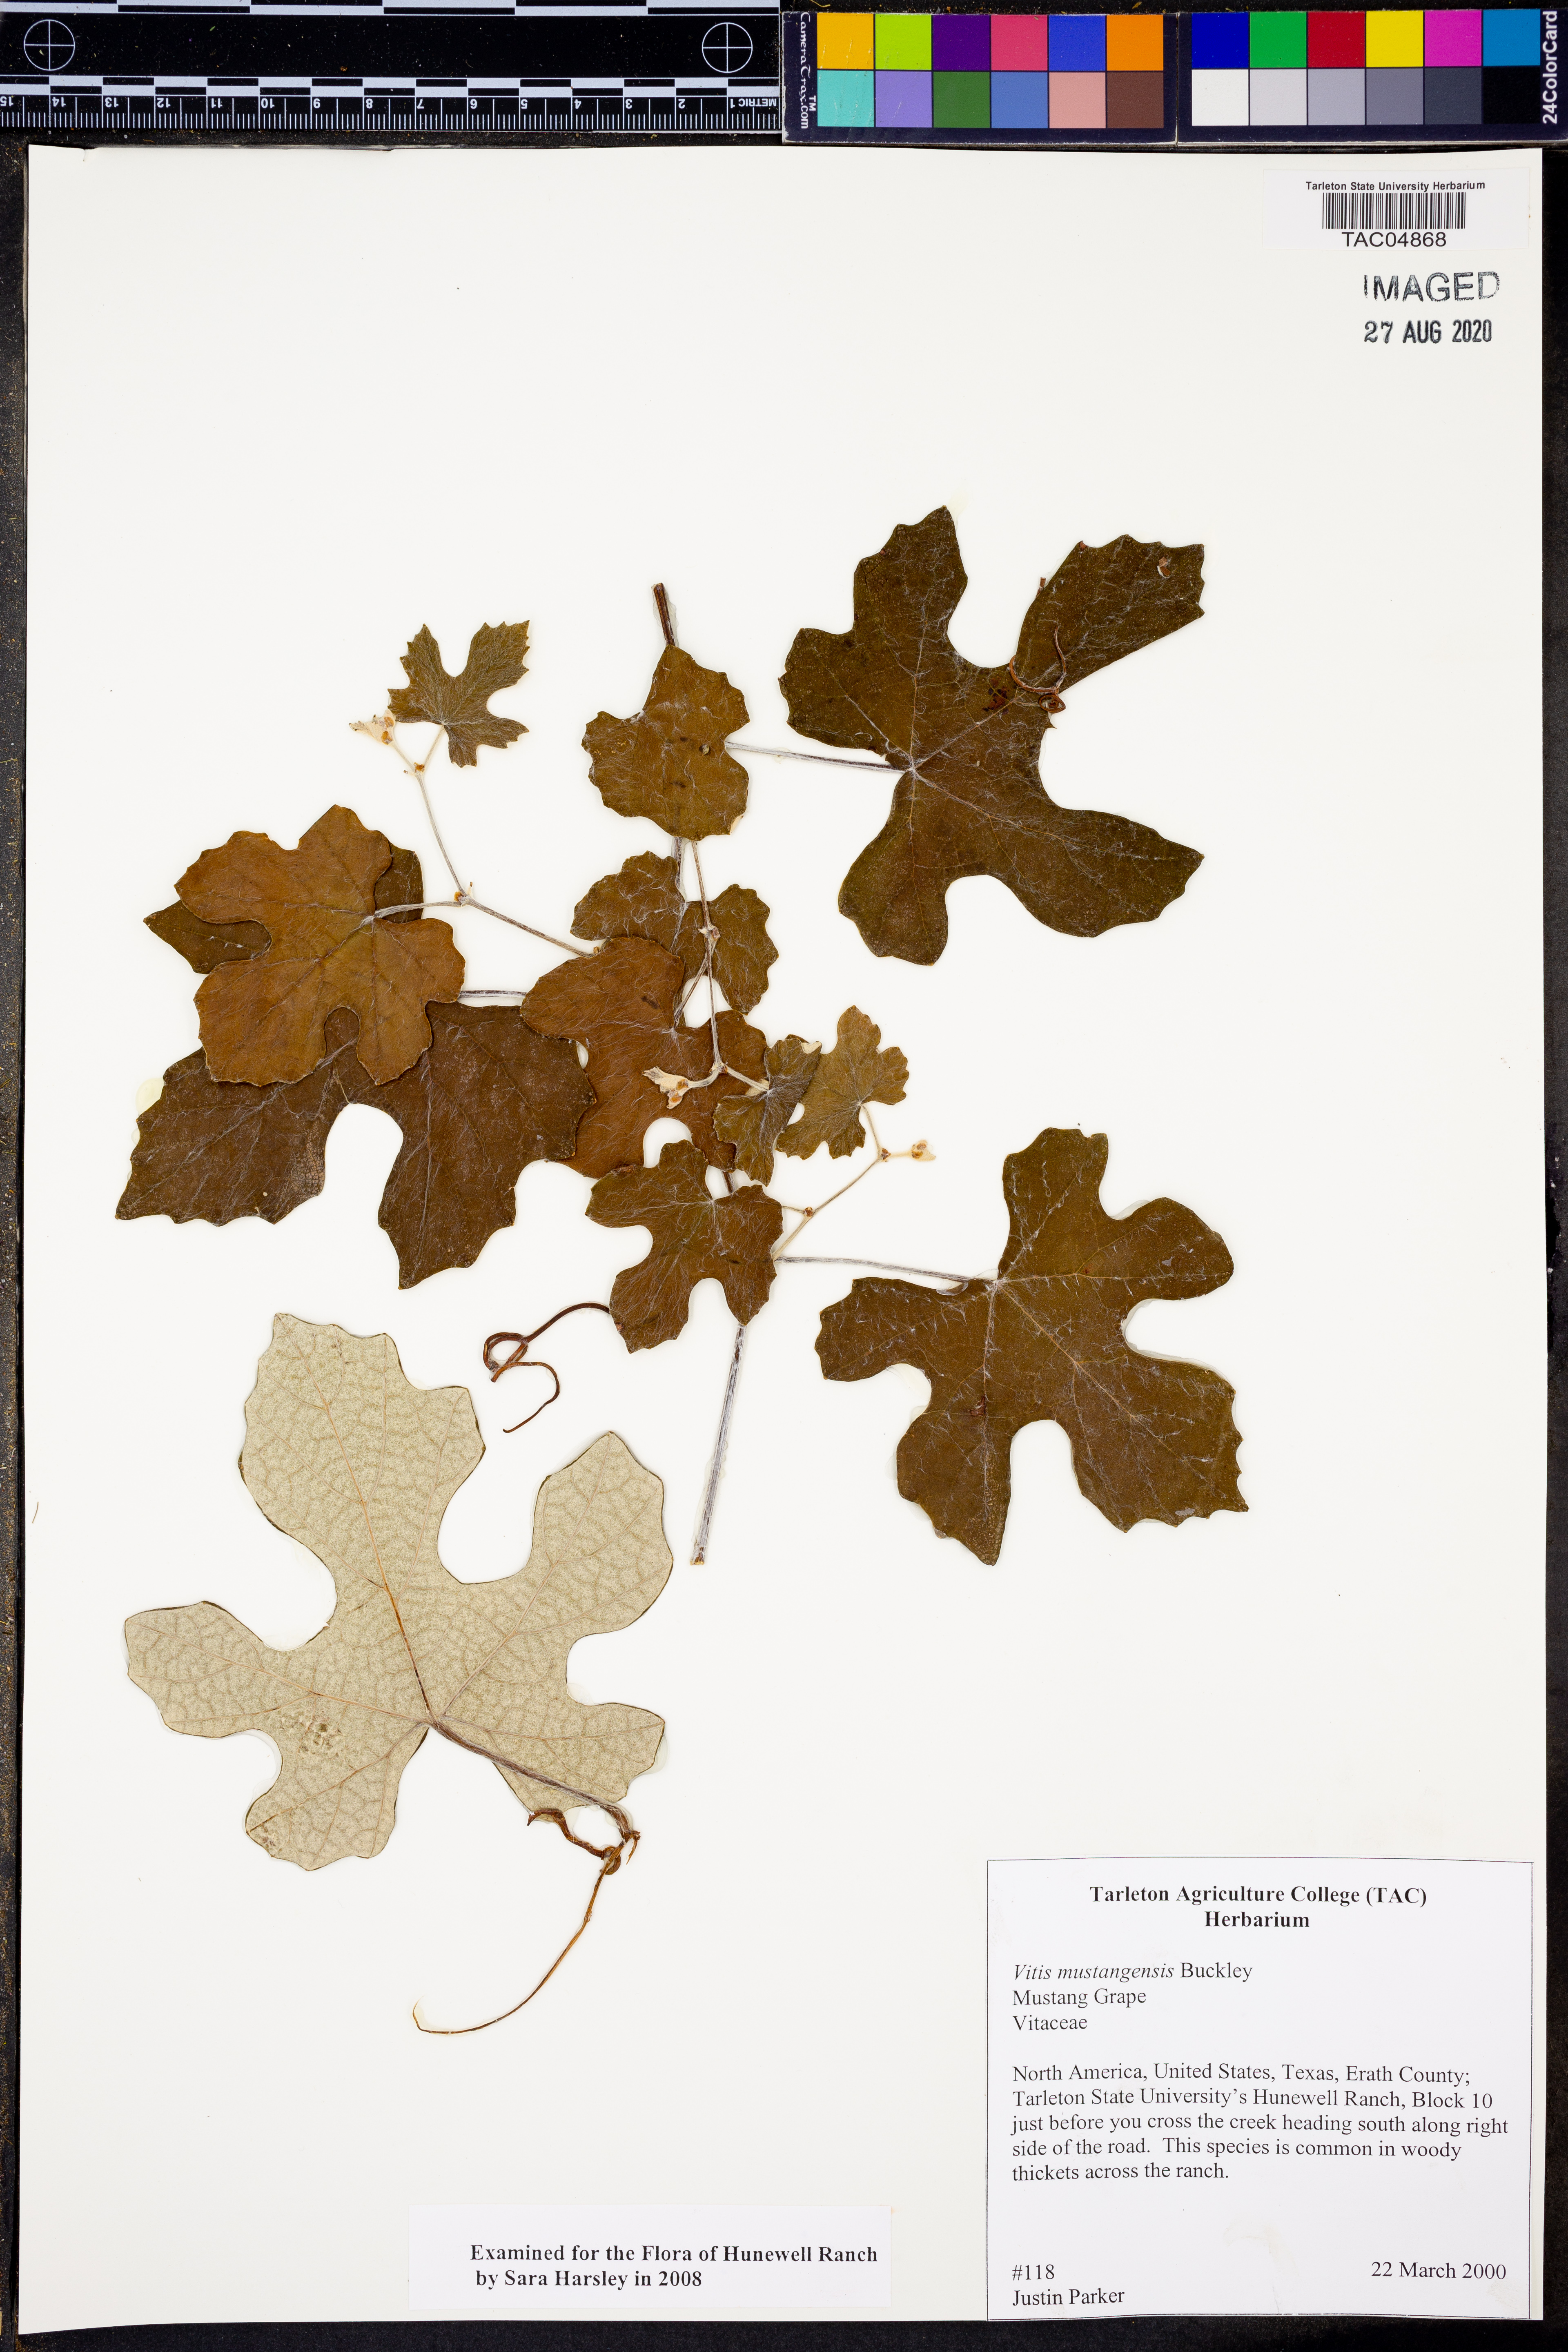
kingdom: Plantae
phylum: Tracheophyta
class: Magnoliopsida
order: Vitales
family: Vitaceae
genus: Vitis
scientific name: Vitis mustangensis
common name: Mustang grape
